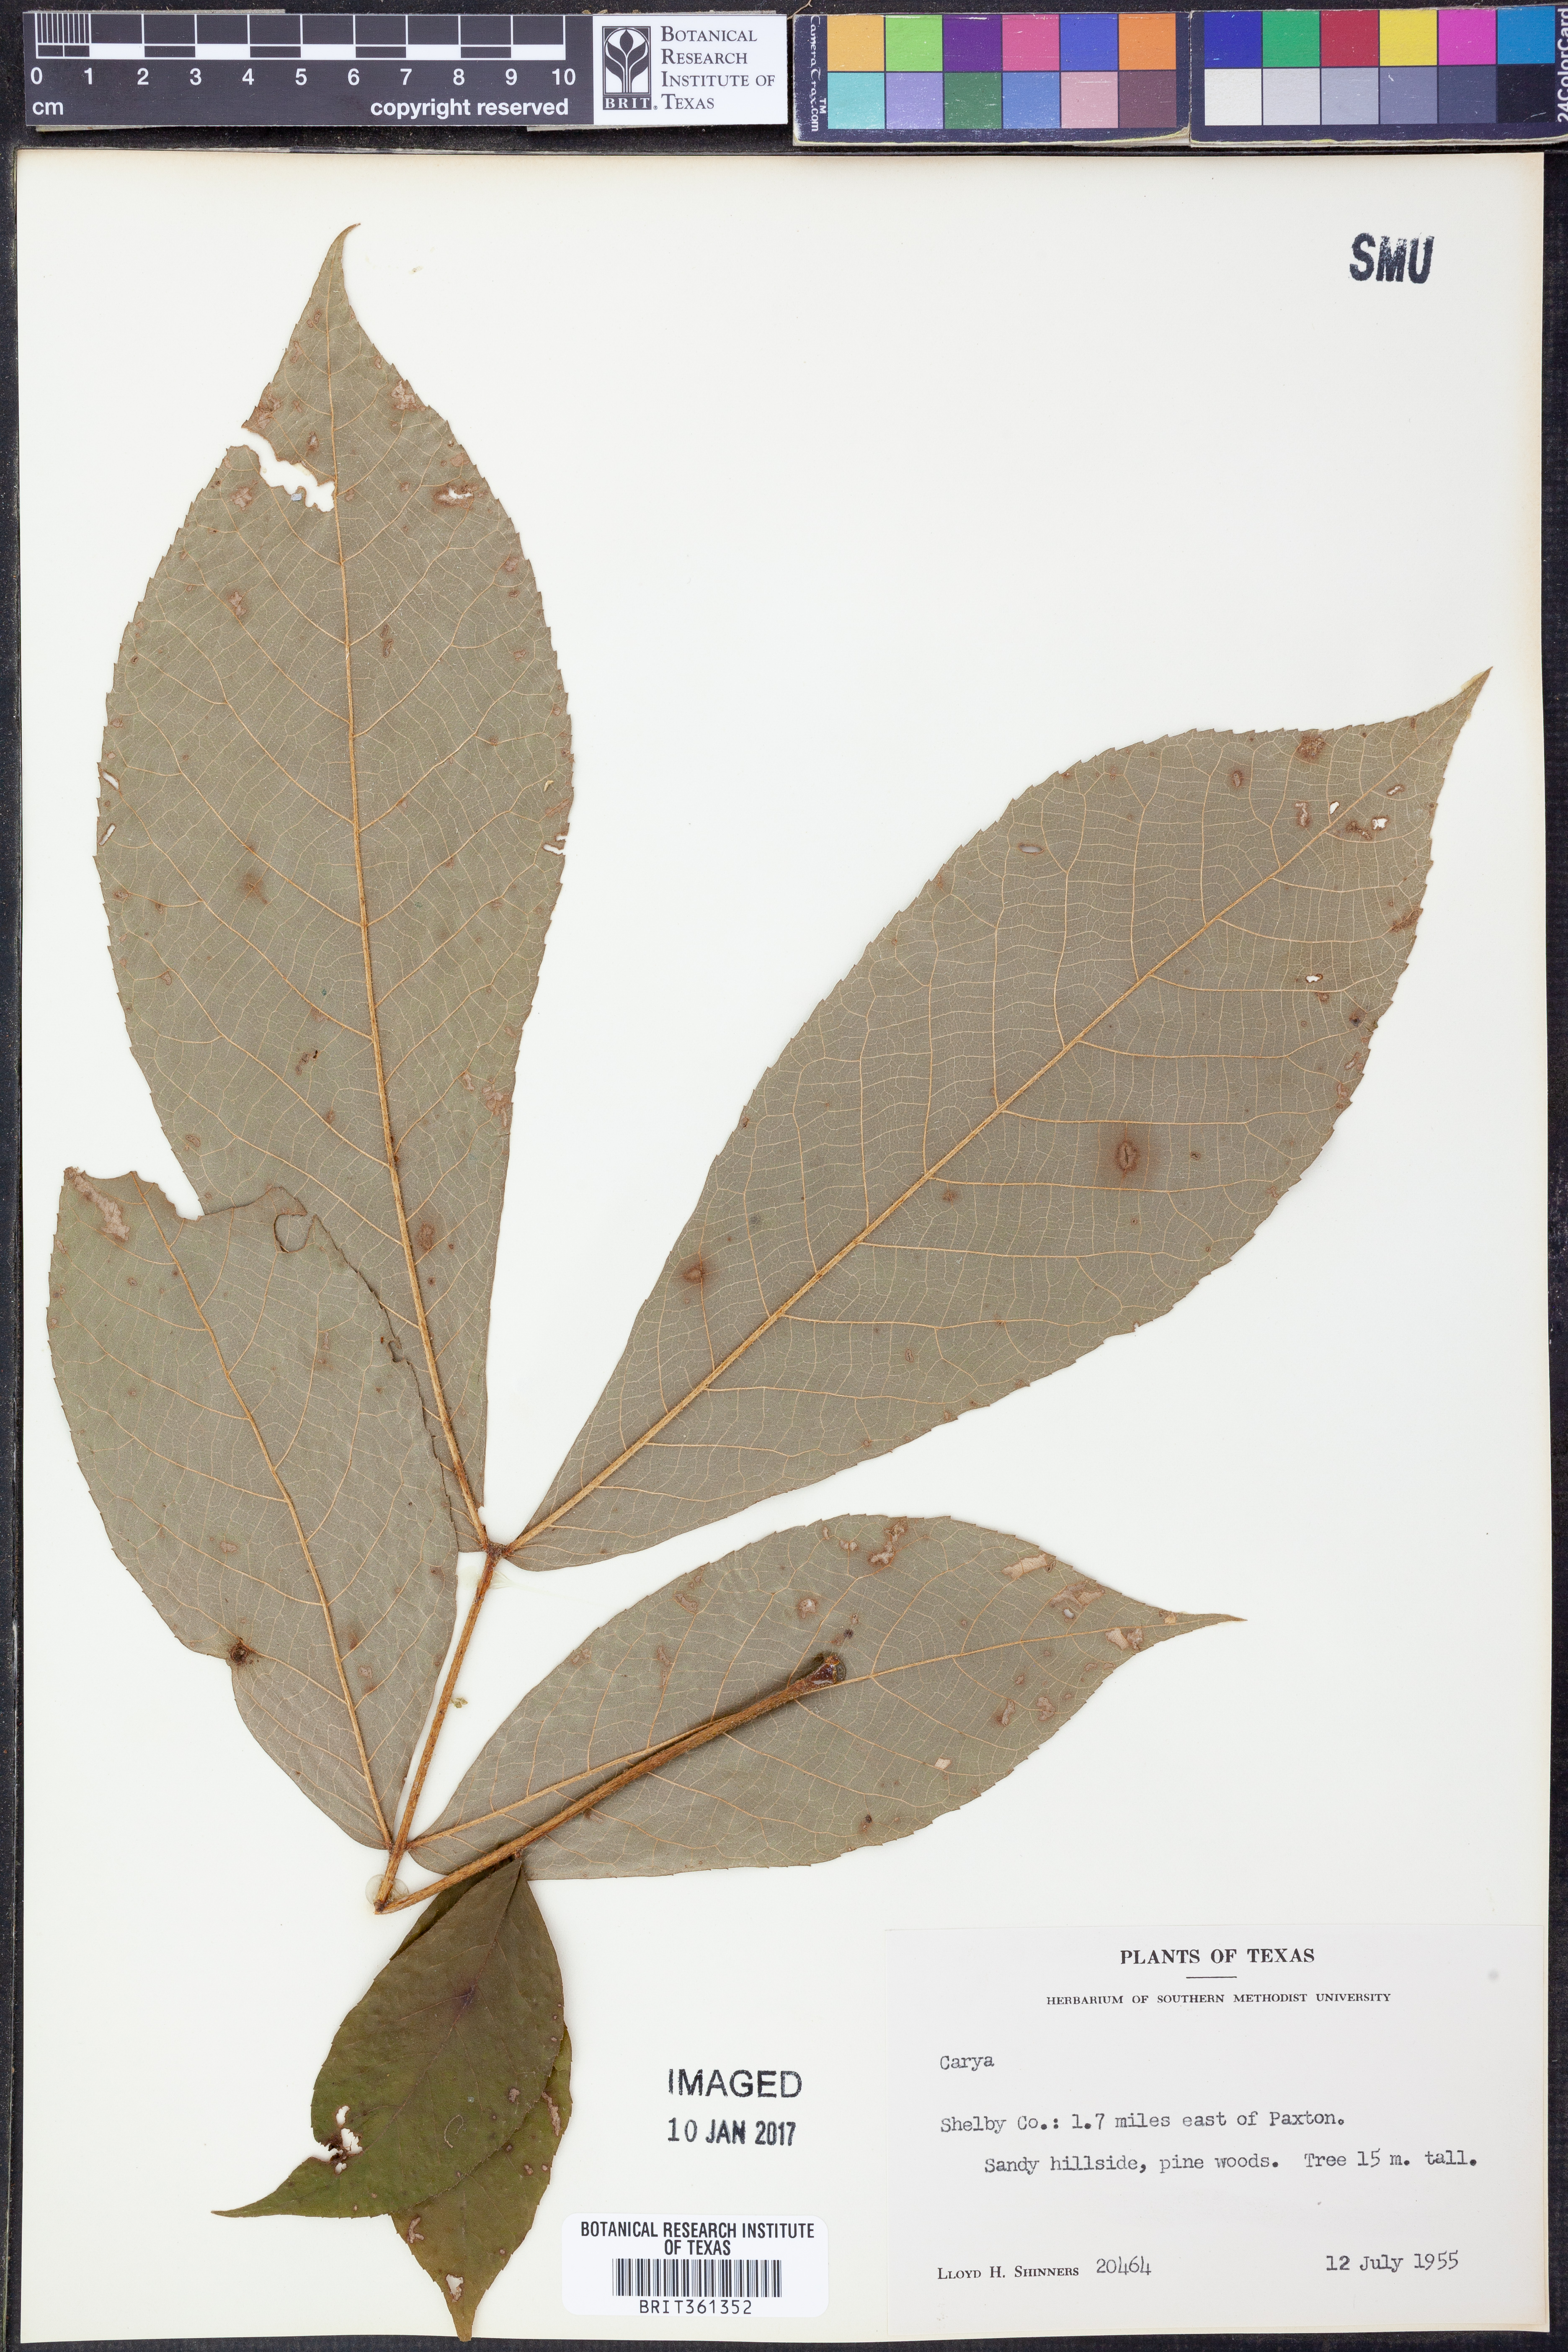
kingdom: Plantae
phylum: Tracheophyta
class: Magnoliopsida
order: Fagales
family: Juglandaceae
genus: Carya
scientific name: Carya
